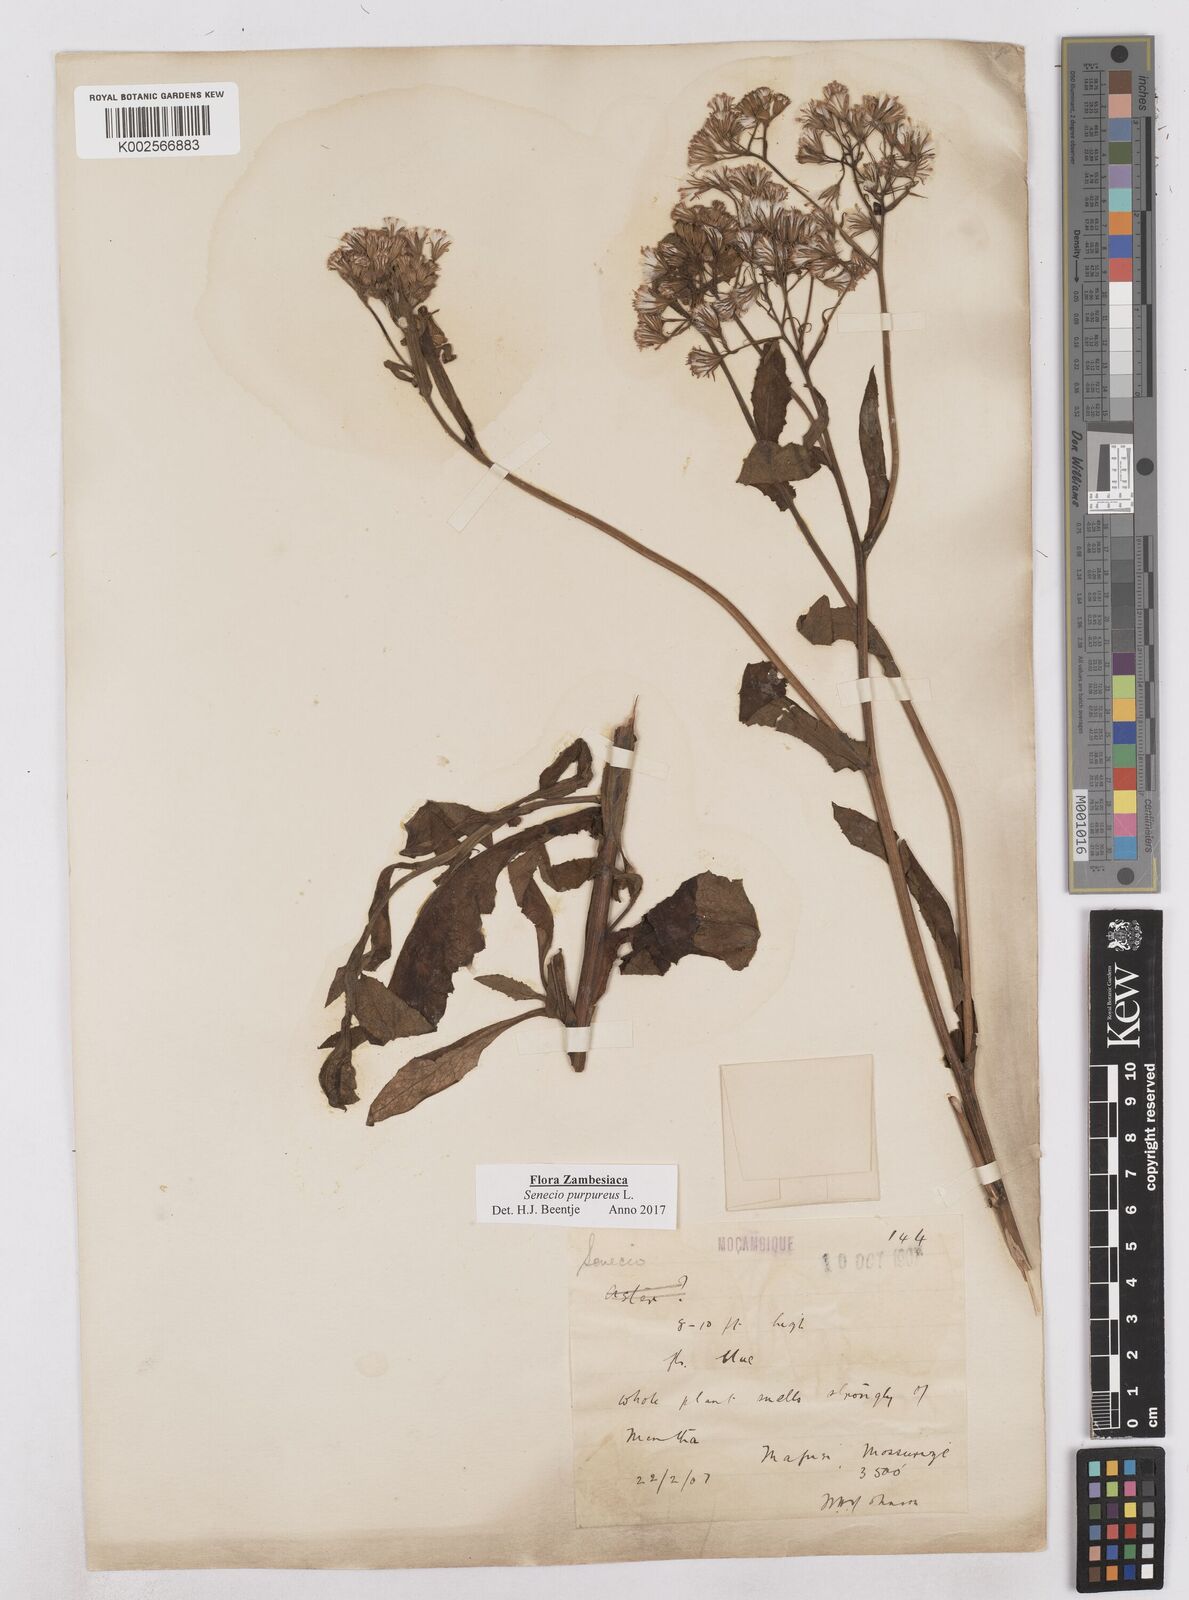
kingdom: Plantae
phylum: Tracheophyta
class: Magnoliopsida
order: Asterales
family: Asteraceae
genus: Senecio
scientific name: Senecio purpureus
